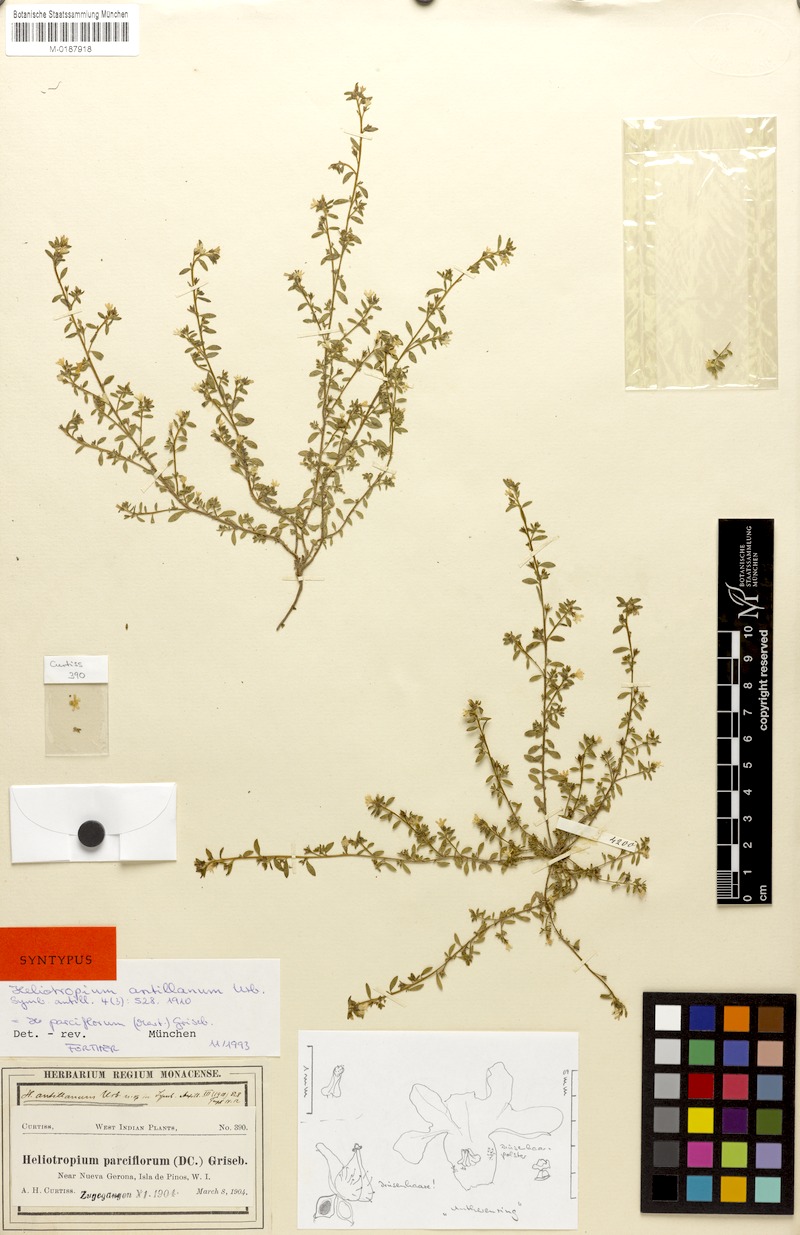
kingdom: Plantae
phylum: Tracheophyta
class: Magnoliopsida
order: Boraginales
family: Heliotropiaceae
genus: Euploca
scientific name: Euploca antillana
